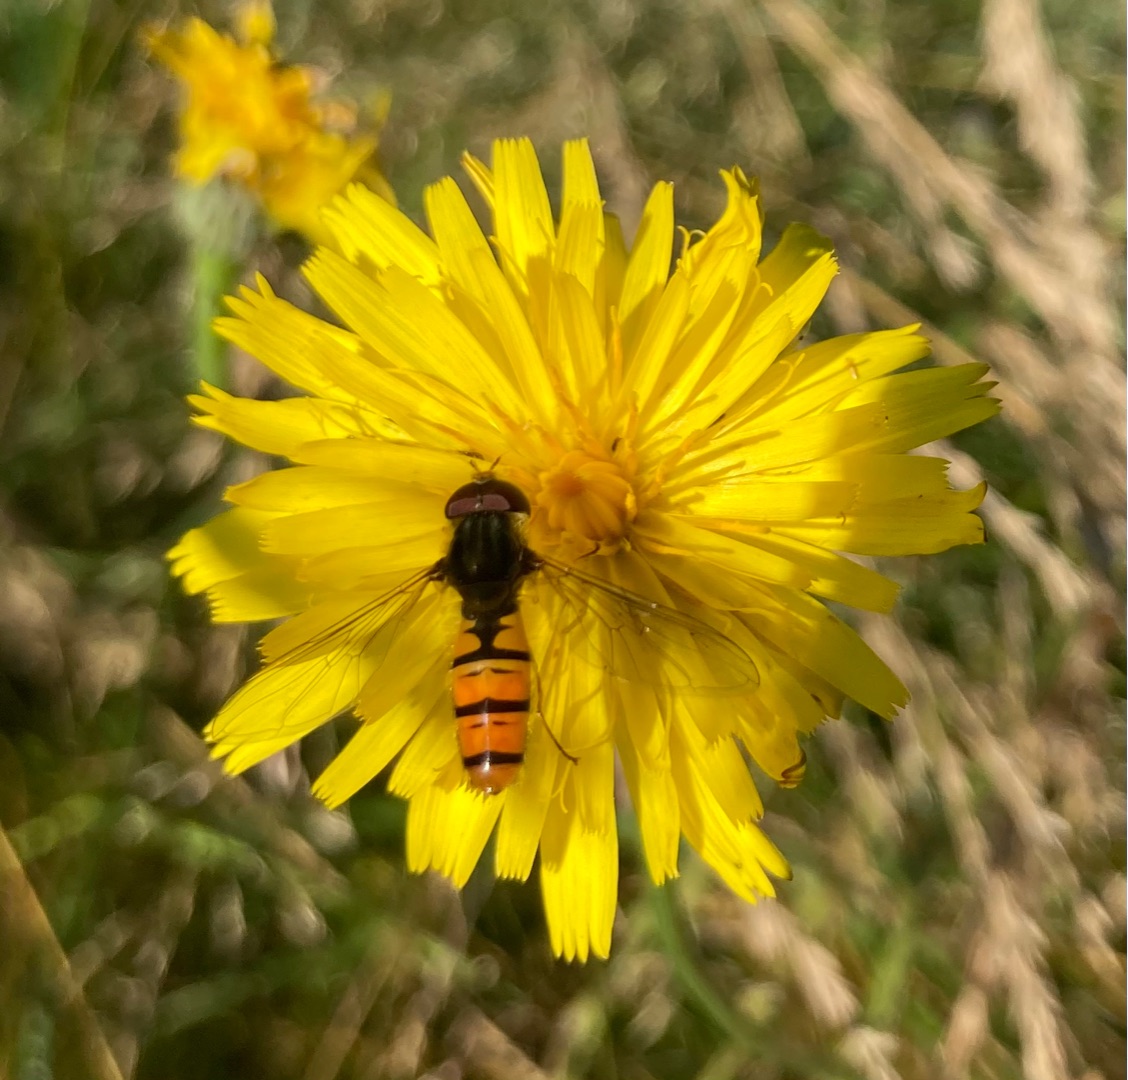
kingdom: Animalia
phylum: Arthropoda
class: Insecta
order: Diptera
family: Syrphidae
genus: Episyrphus
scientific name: Episyrphus balteatus
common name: Dobbeltbåndet svirreflue
